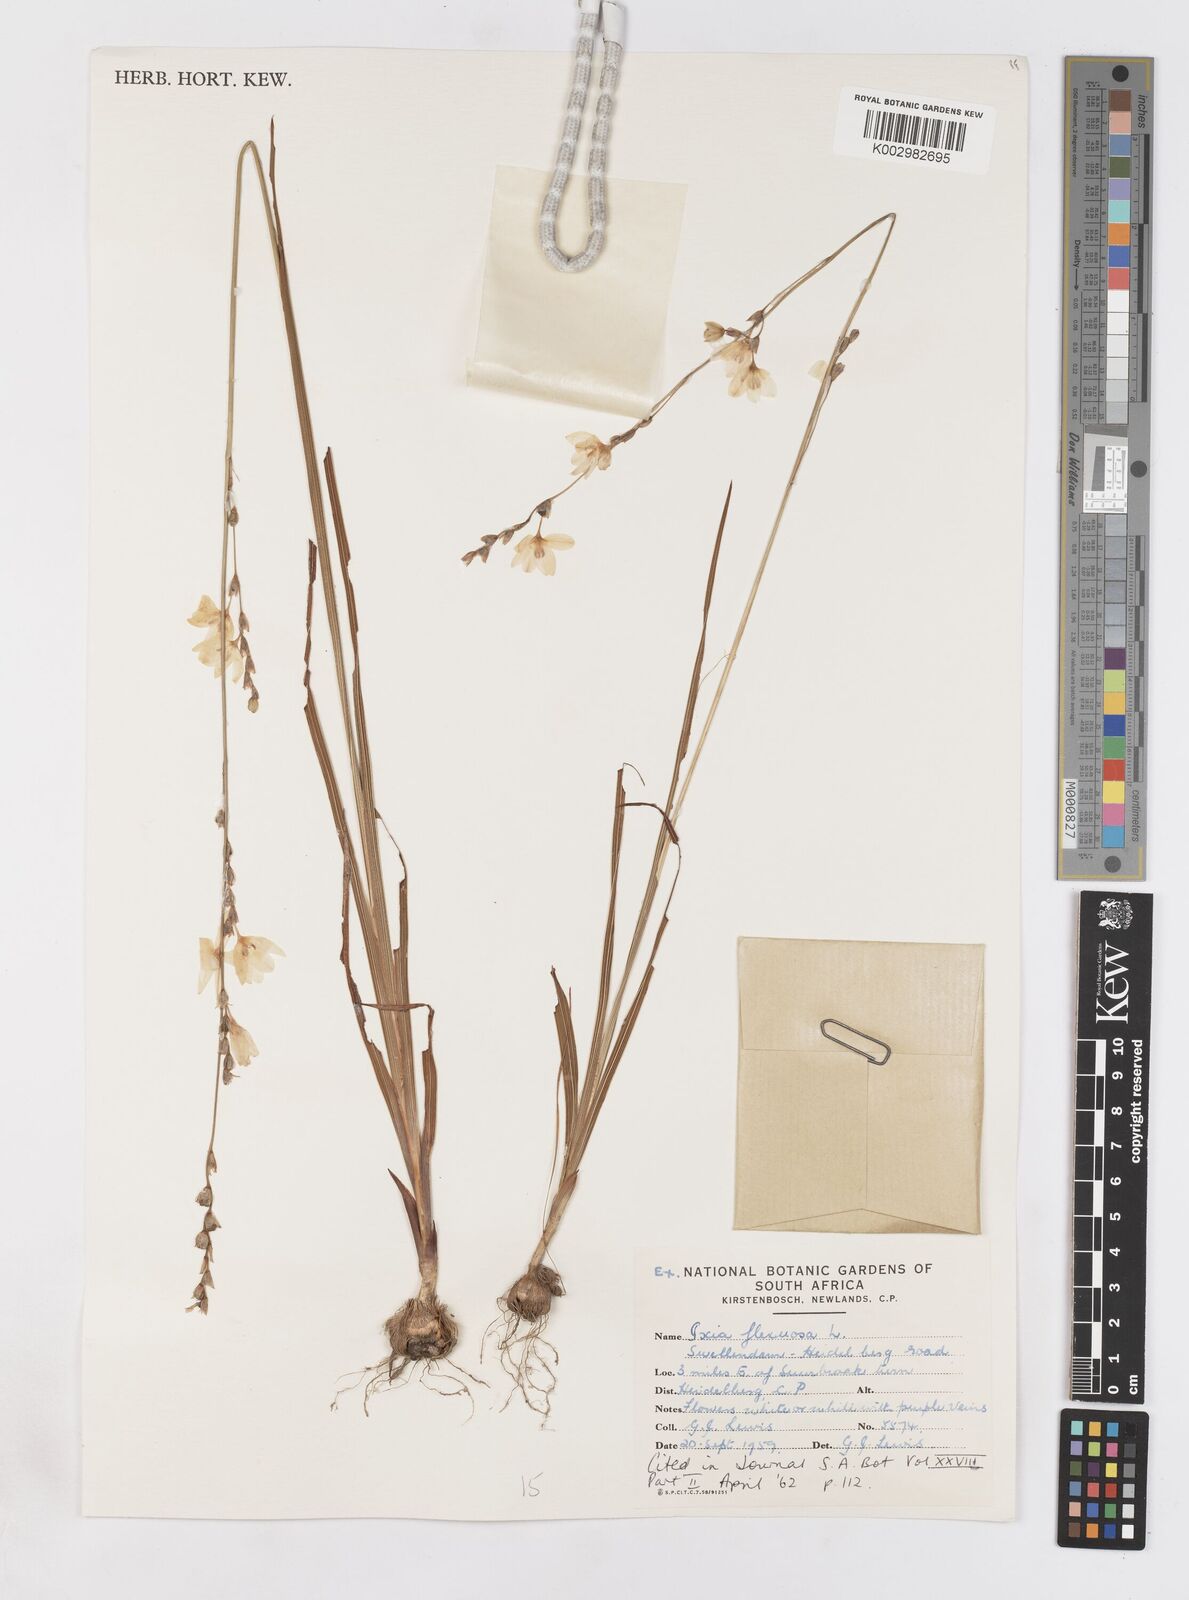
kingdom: Plantae
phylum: Tracheophyta
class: Liliopsida
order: Asparagales
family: Iridaceae
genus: Ixia
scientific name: Ixia flexuosa
